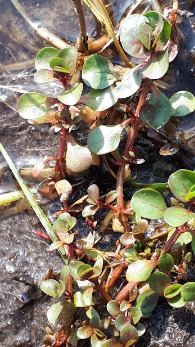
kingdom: Plantae
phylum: Tracheophyta
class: Magnoliopsida
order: Myrtales
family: Lythraceae
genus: Lythrum
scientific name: Lythrum portula
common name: Vandportulak
